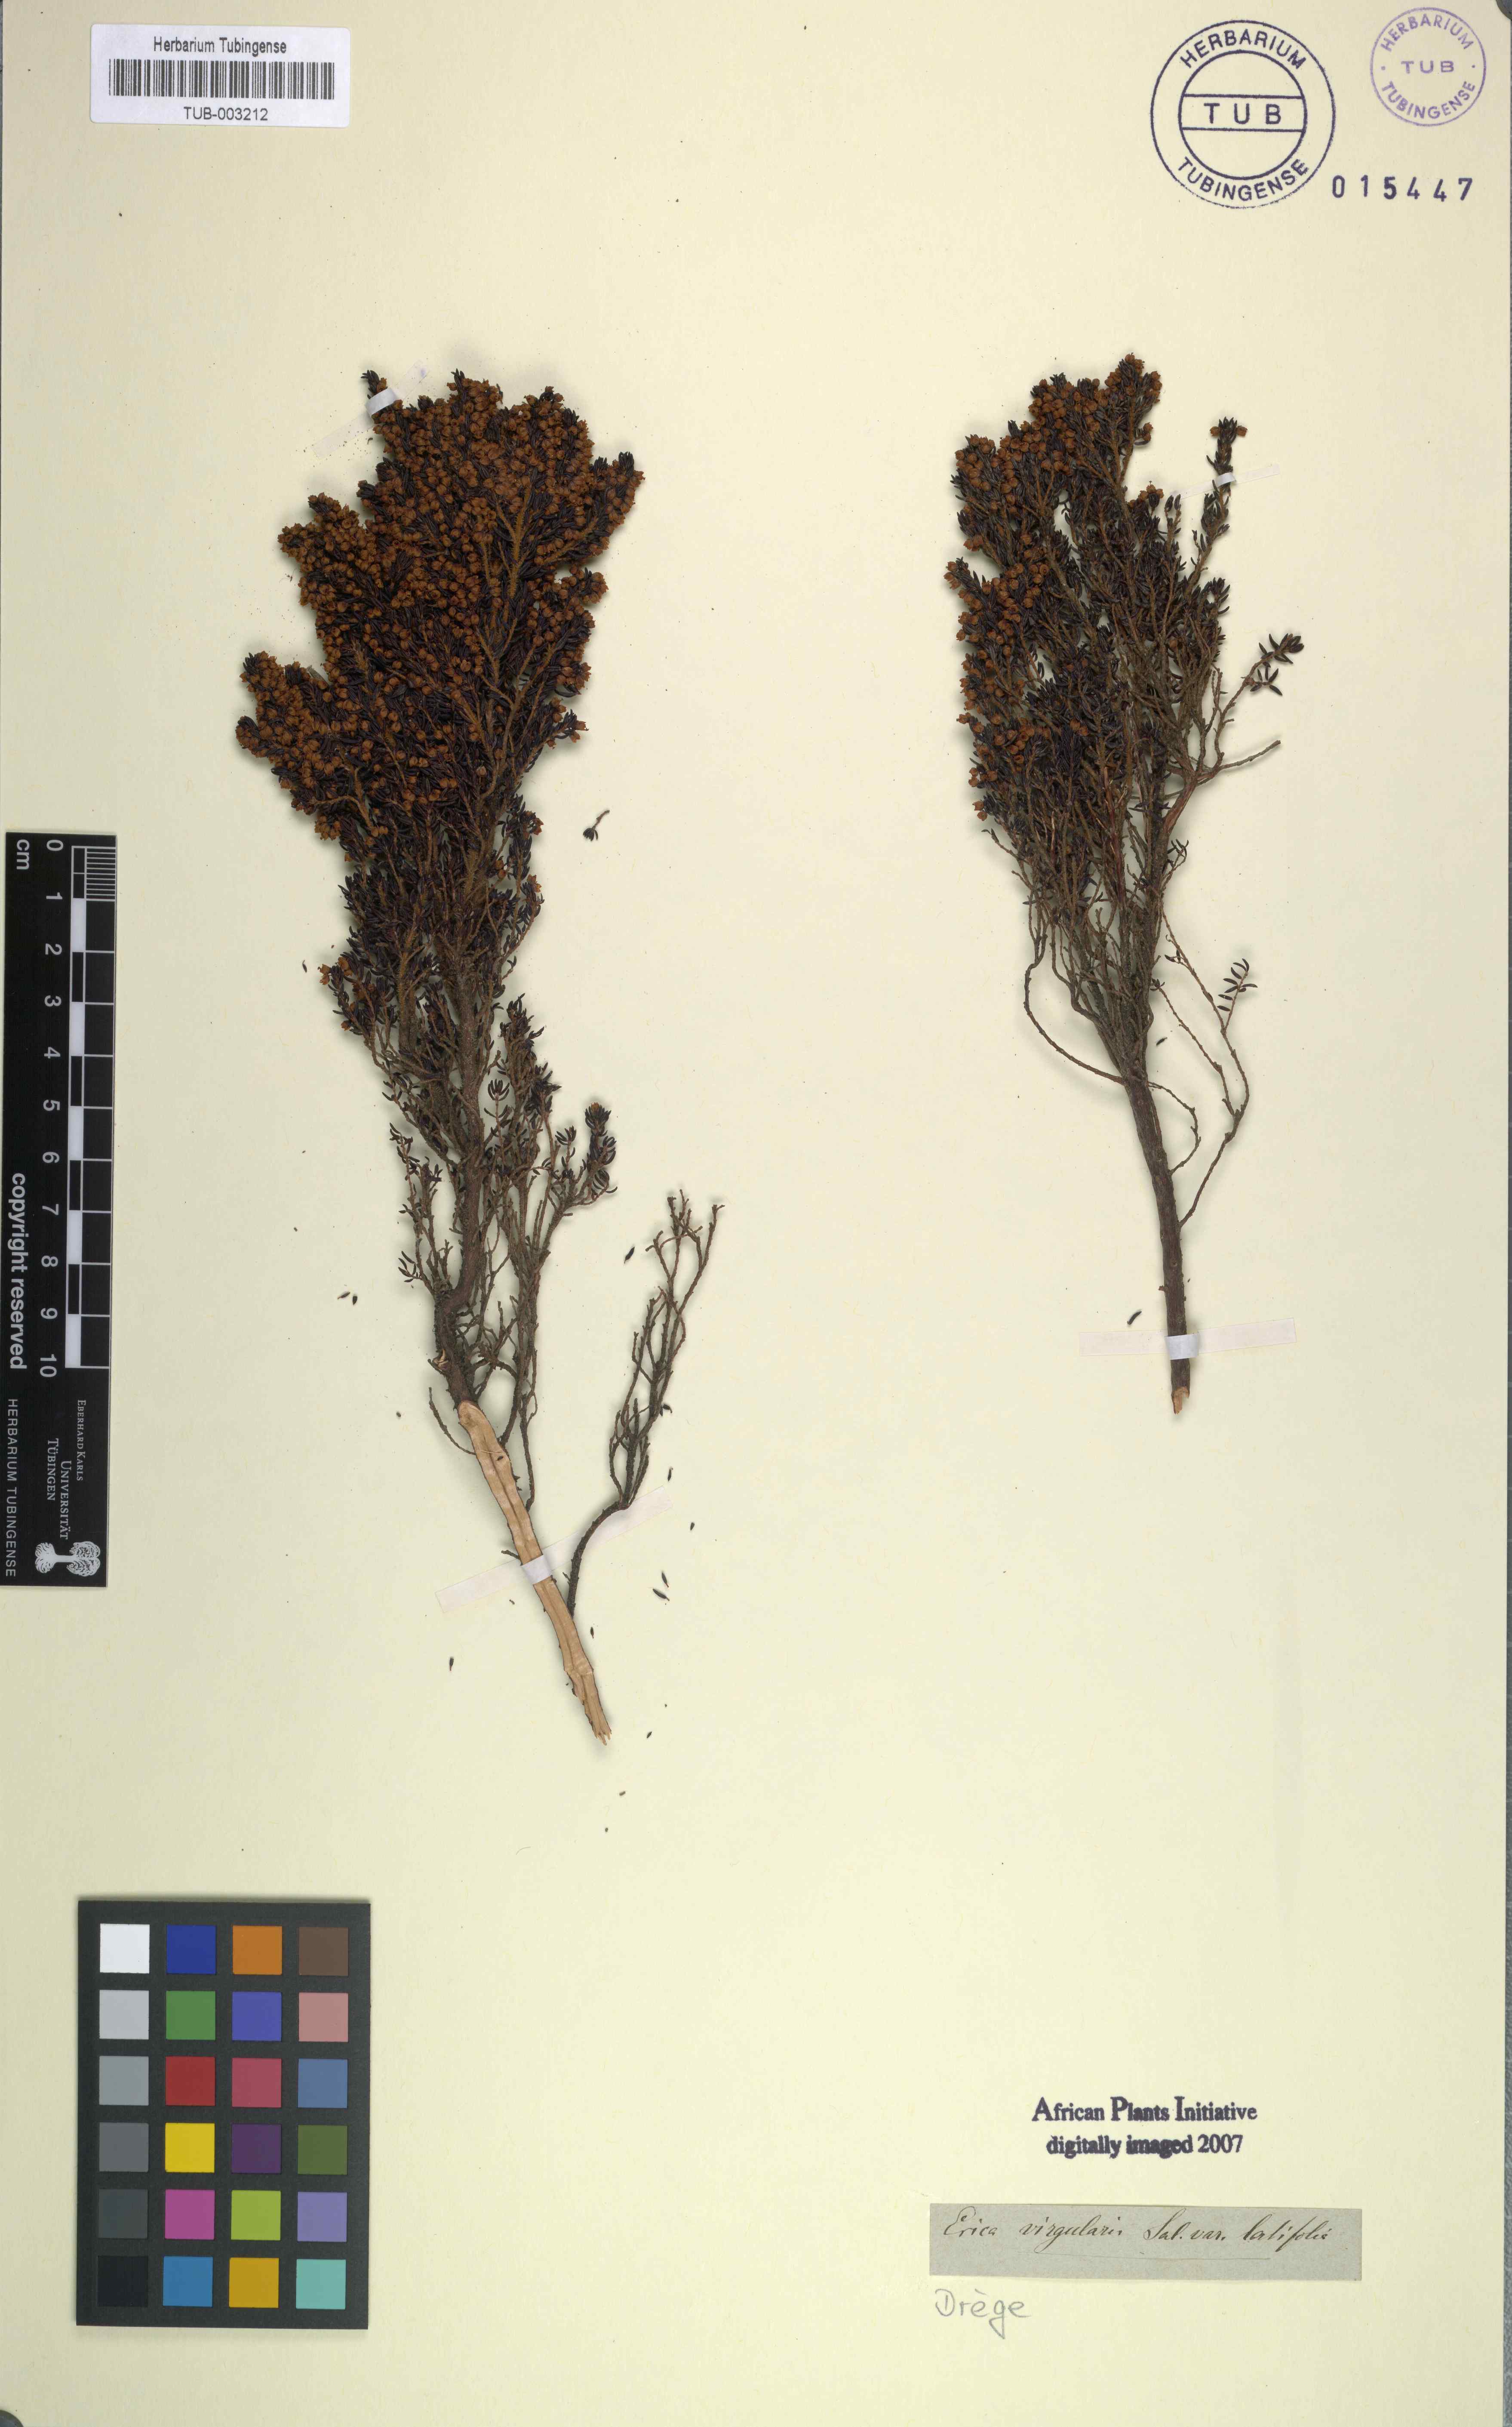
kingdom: Plantae
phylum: Tracheophyta
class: Magnoliopsida
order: Ericales
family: Ericaceae
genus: Erica
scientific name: Erica hispidula
